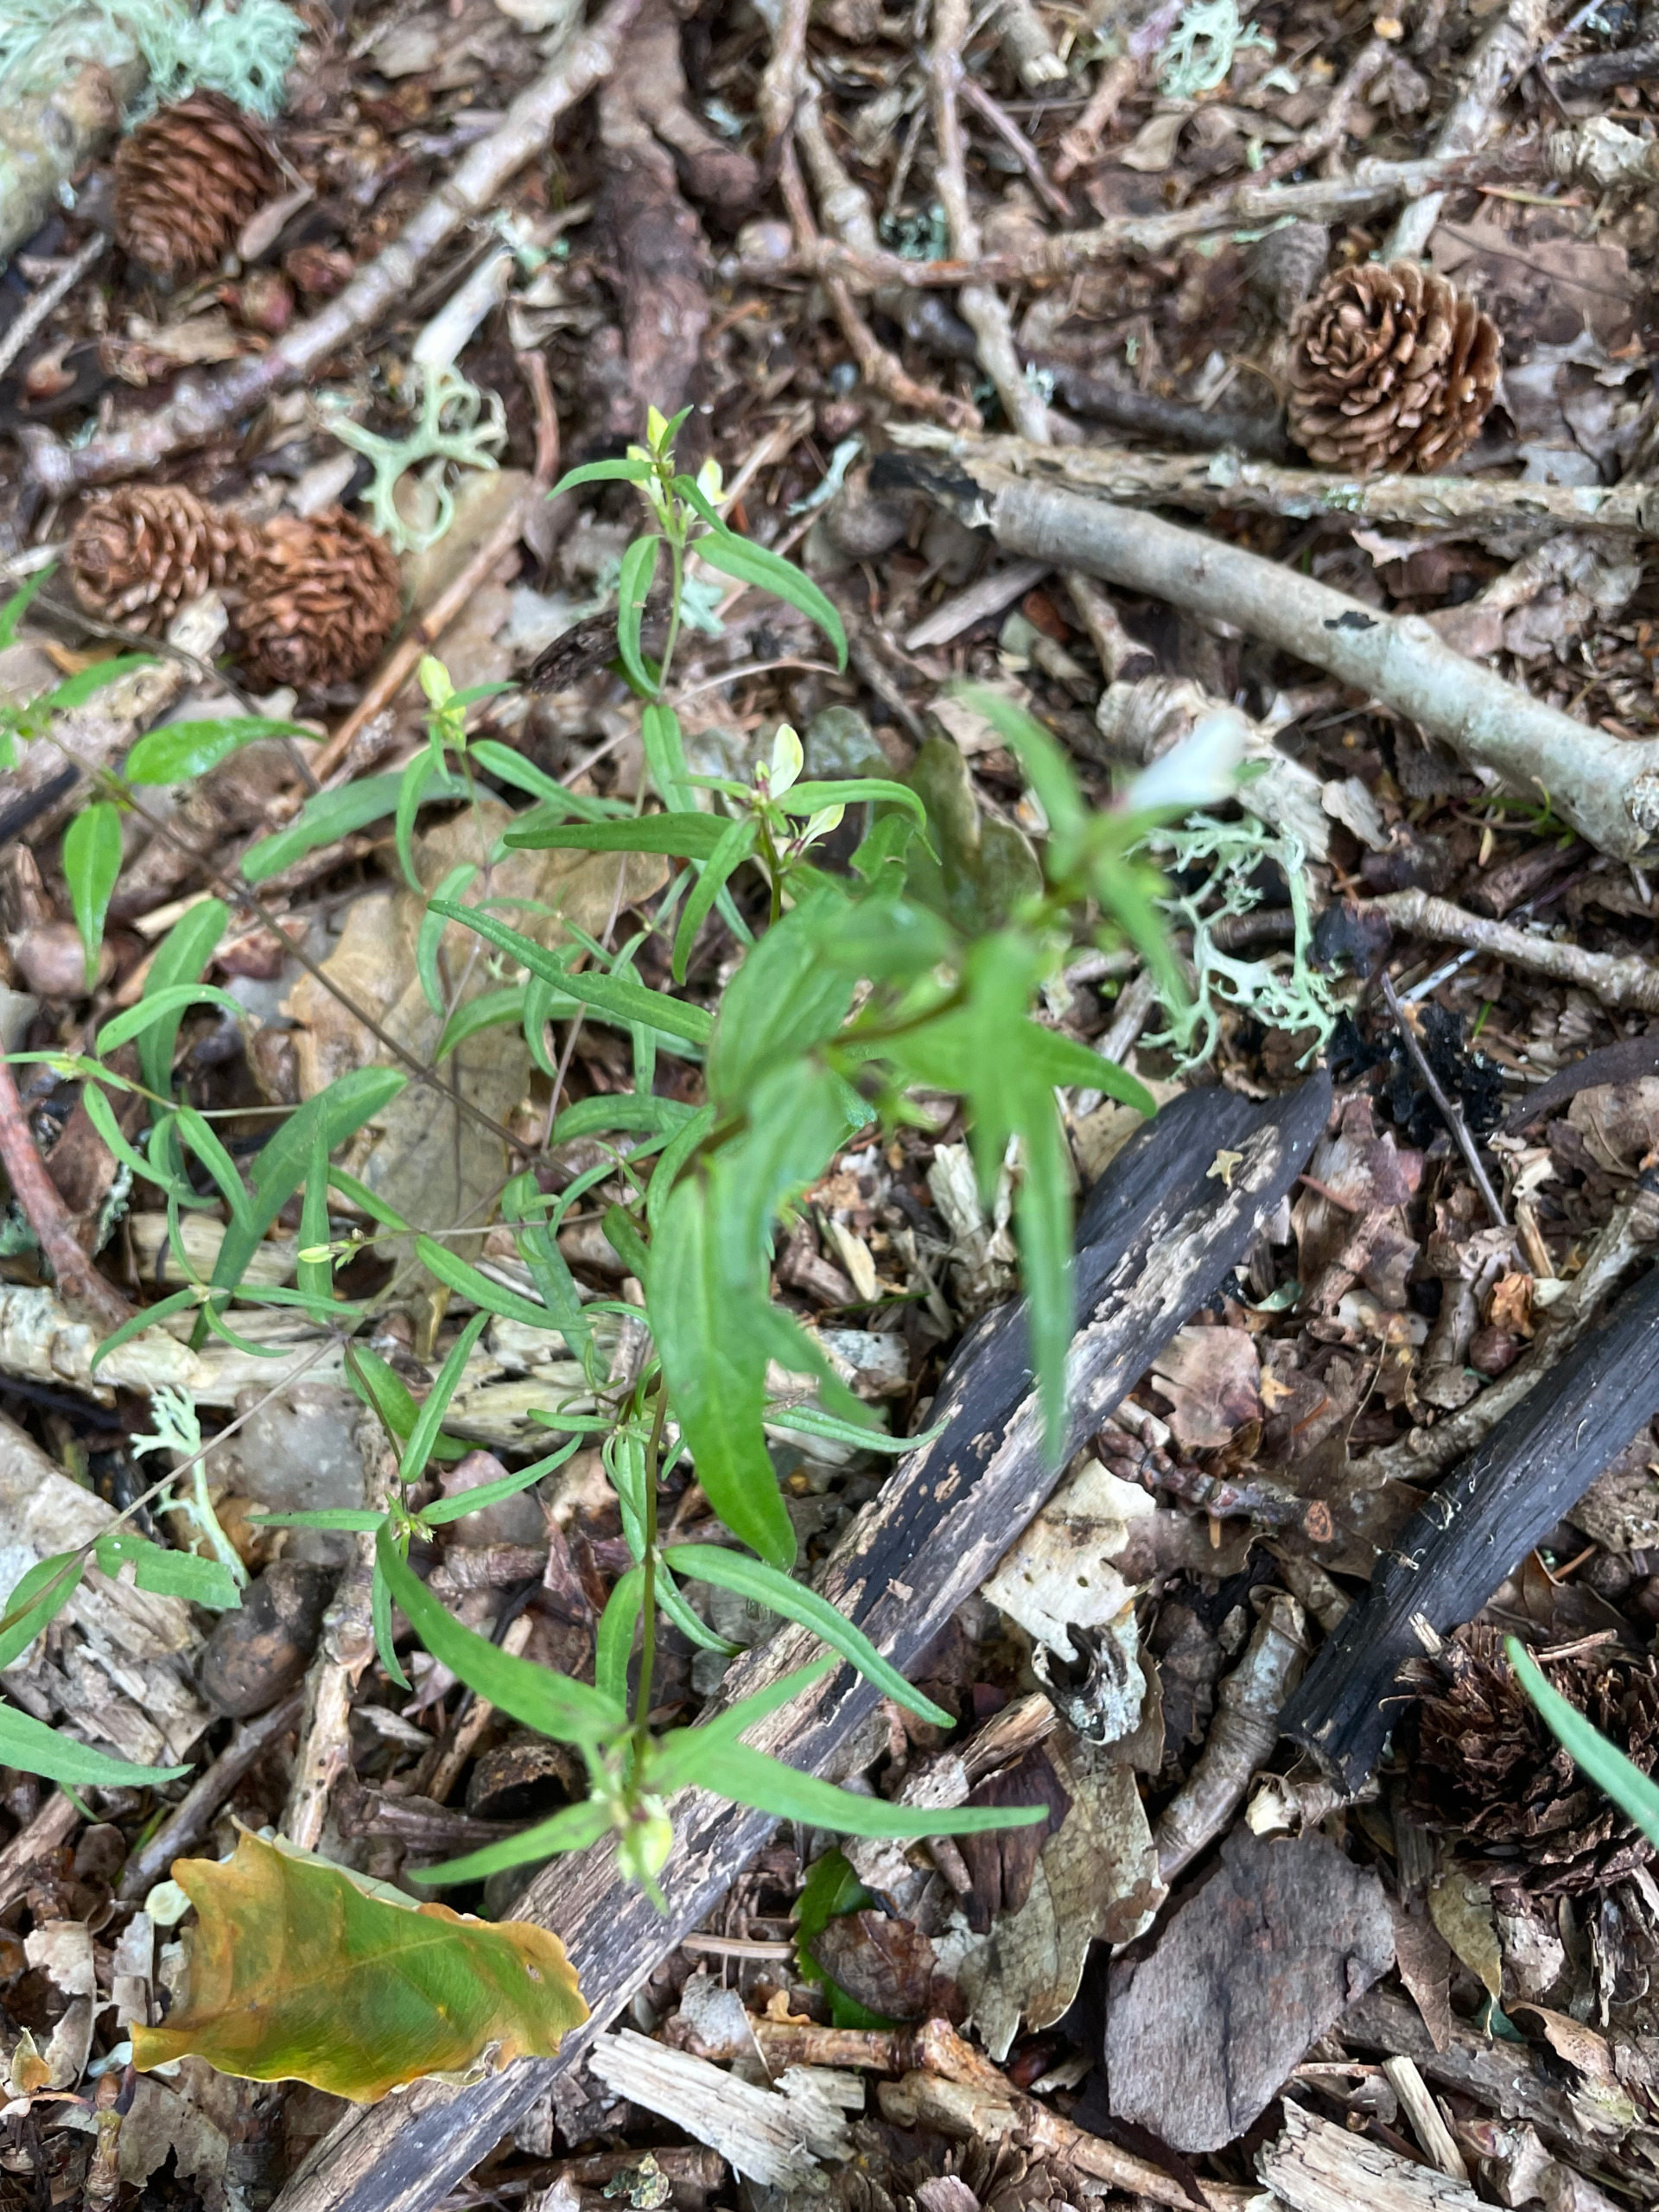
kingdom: Plantae
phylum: Tracheophyta
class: Magnoliopsida
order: Lamiales
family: Orobanchaceae
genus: Melampyrum
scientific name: Melampyrum pratense
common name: Almindelig kohvede
